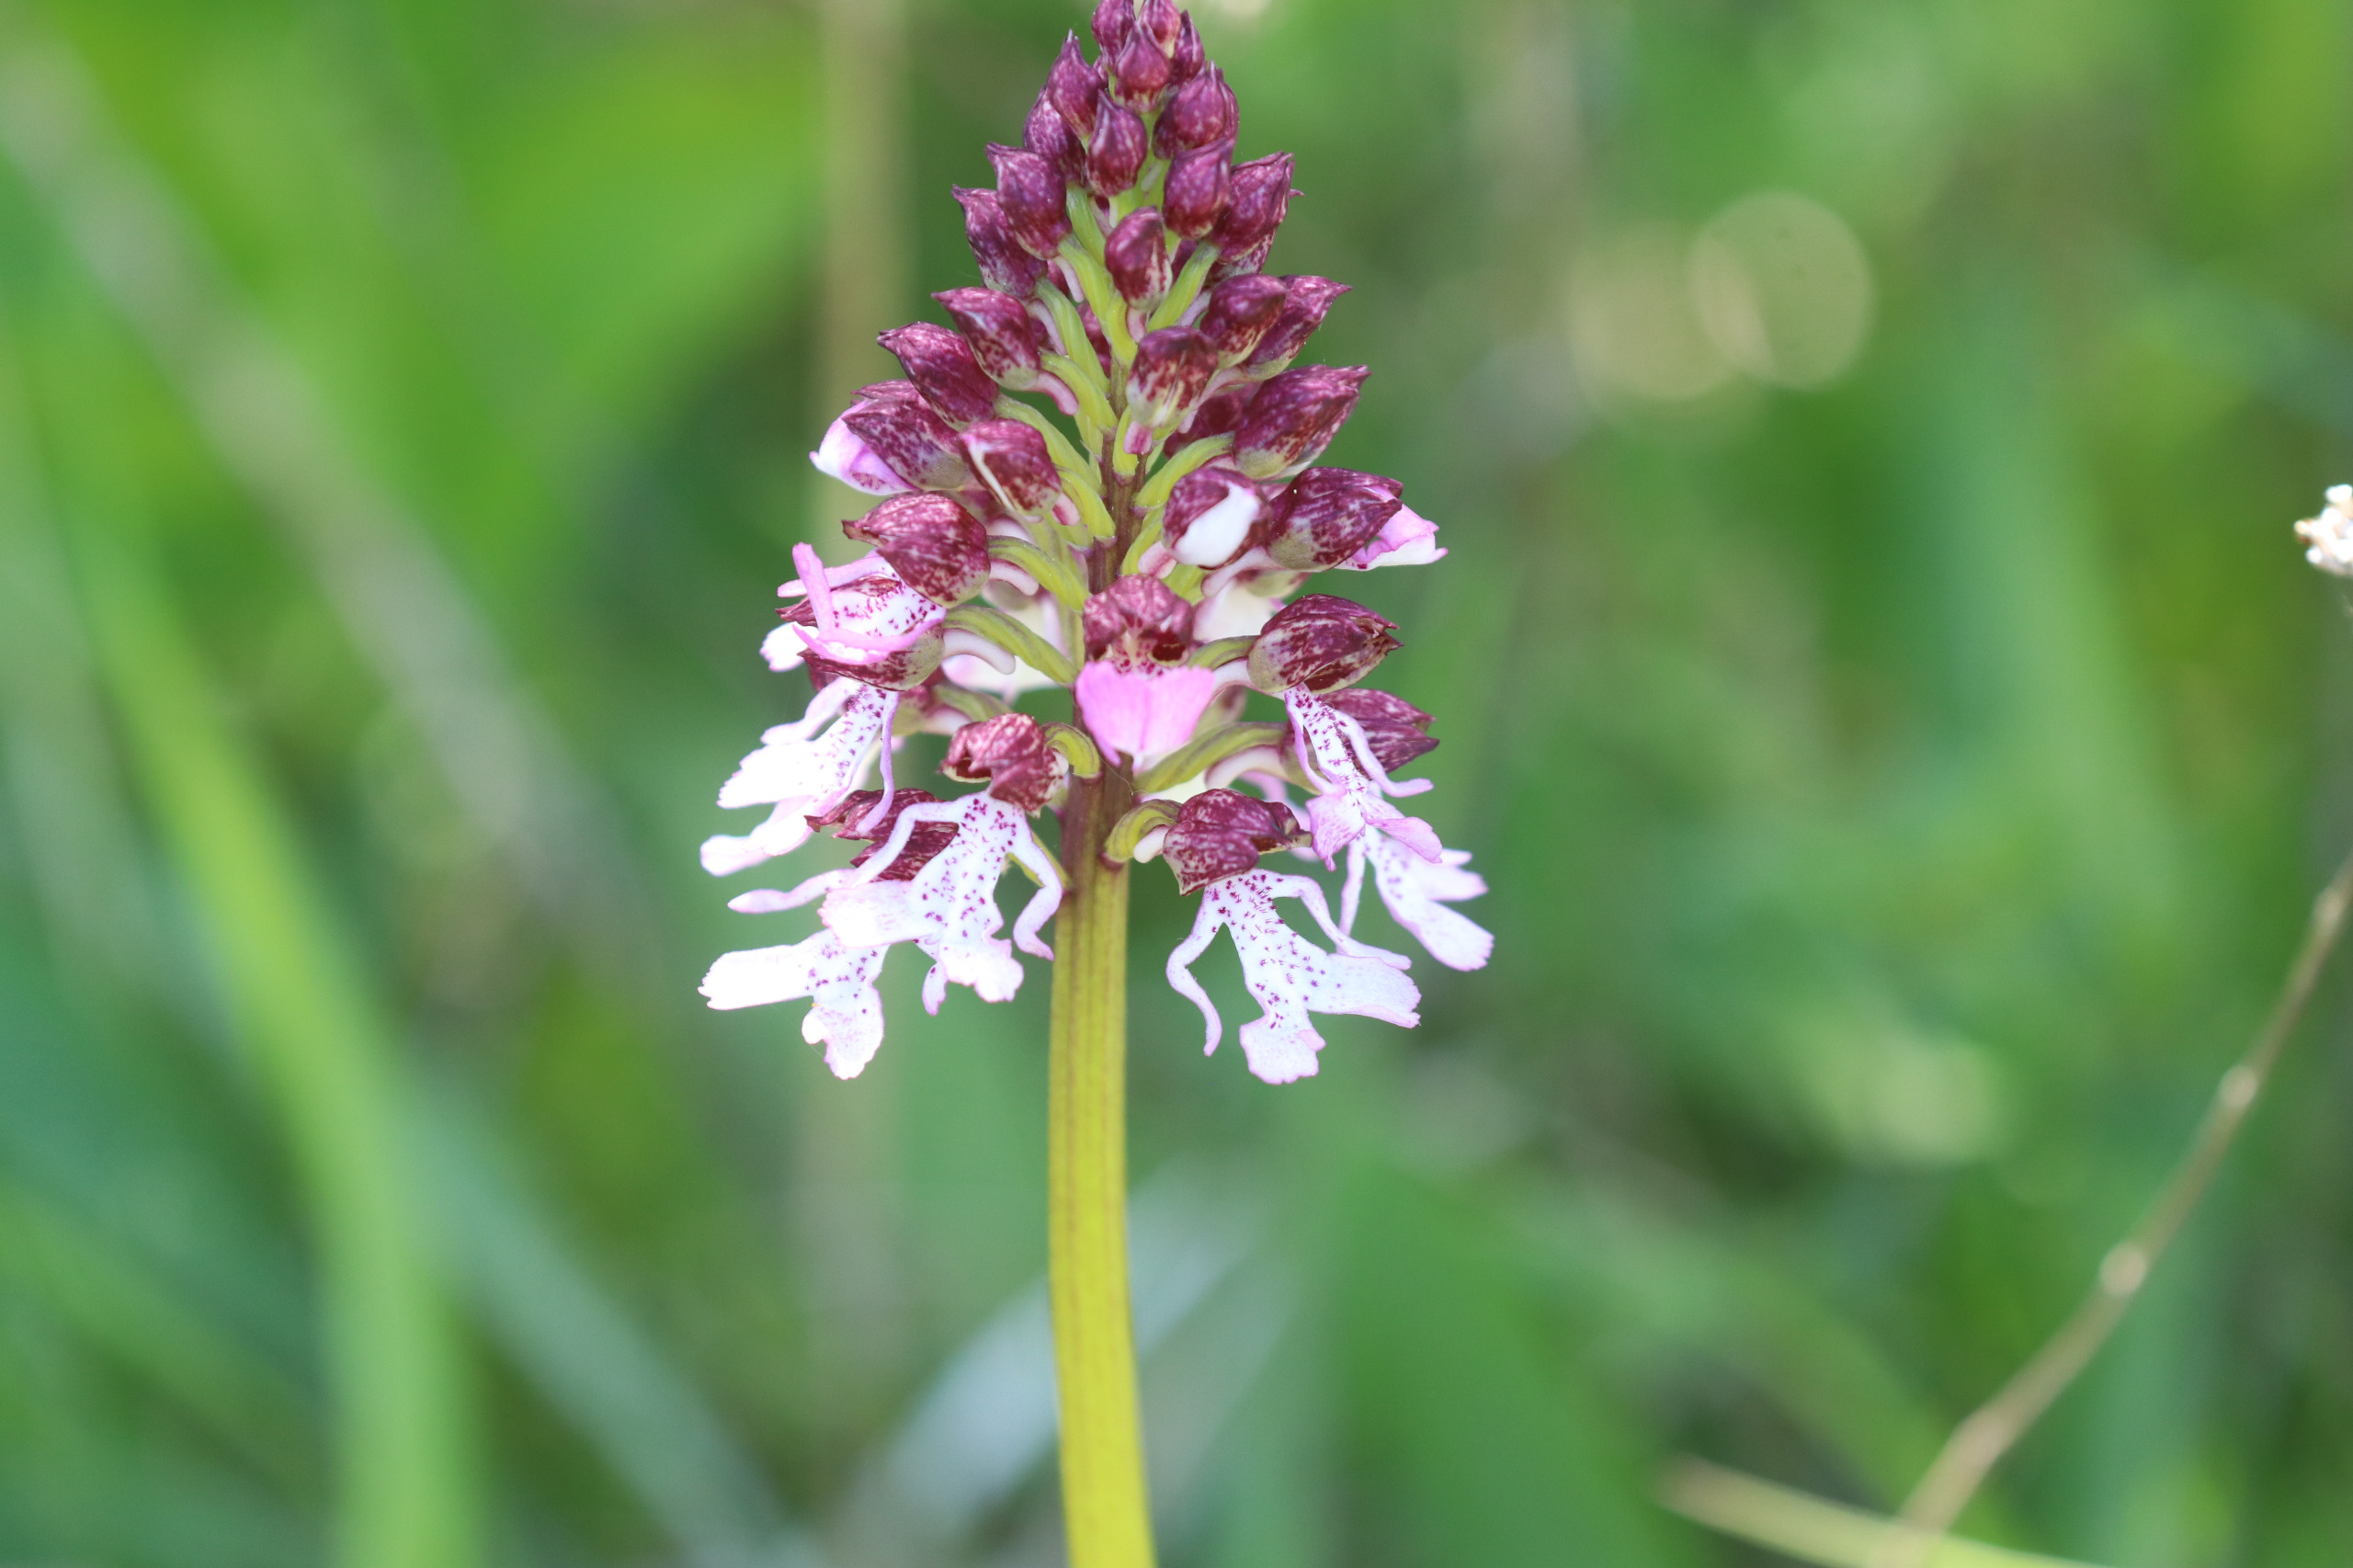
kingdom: Plantae
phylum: Tracheophyta
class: Liliopsida
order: Asparagales
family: Orchidaceae
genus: Orchis
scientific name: Orchis purpurea
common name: Stor gøgeurt
